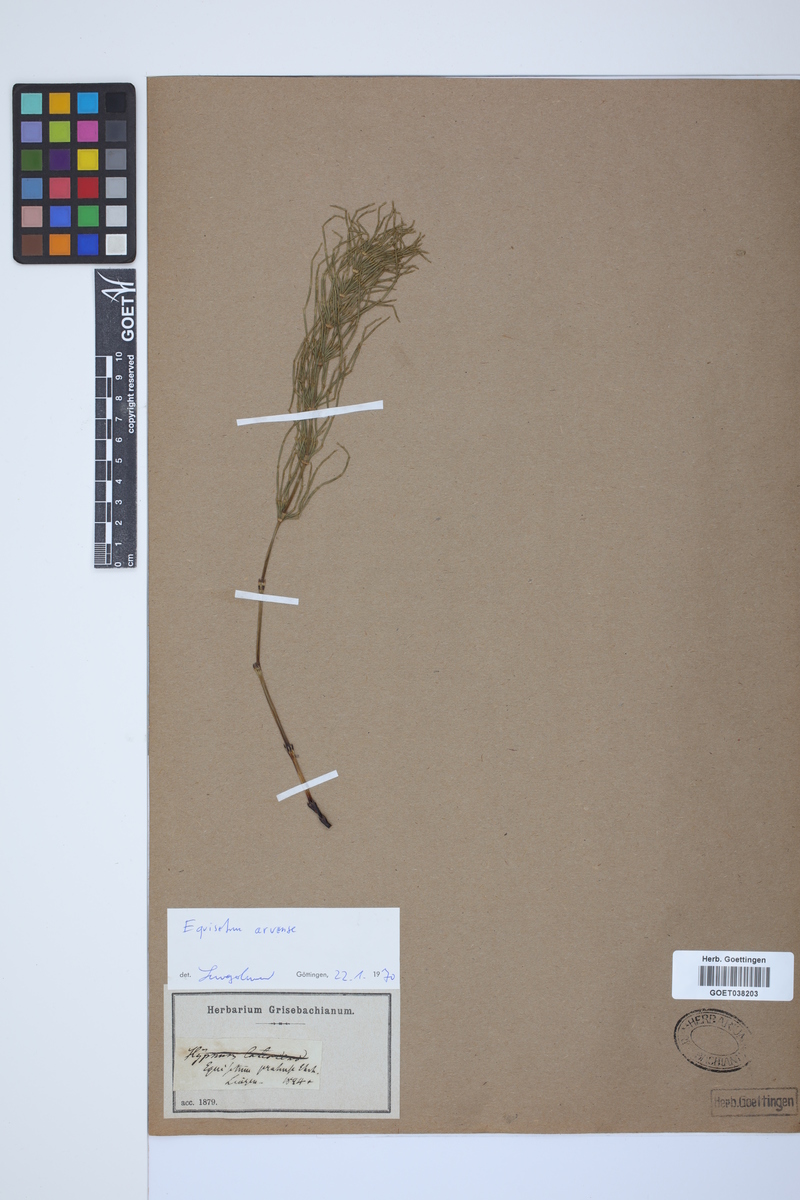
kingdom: Plantae
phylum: Tracheophyta
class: Polypodiopsida
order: Equisetales
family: Equisetaceae
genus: Equisetum
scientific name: Equisetum arvense
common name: Field horsetail
